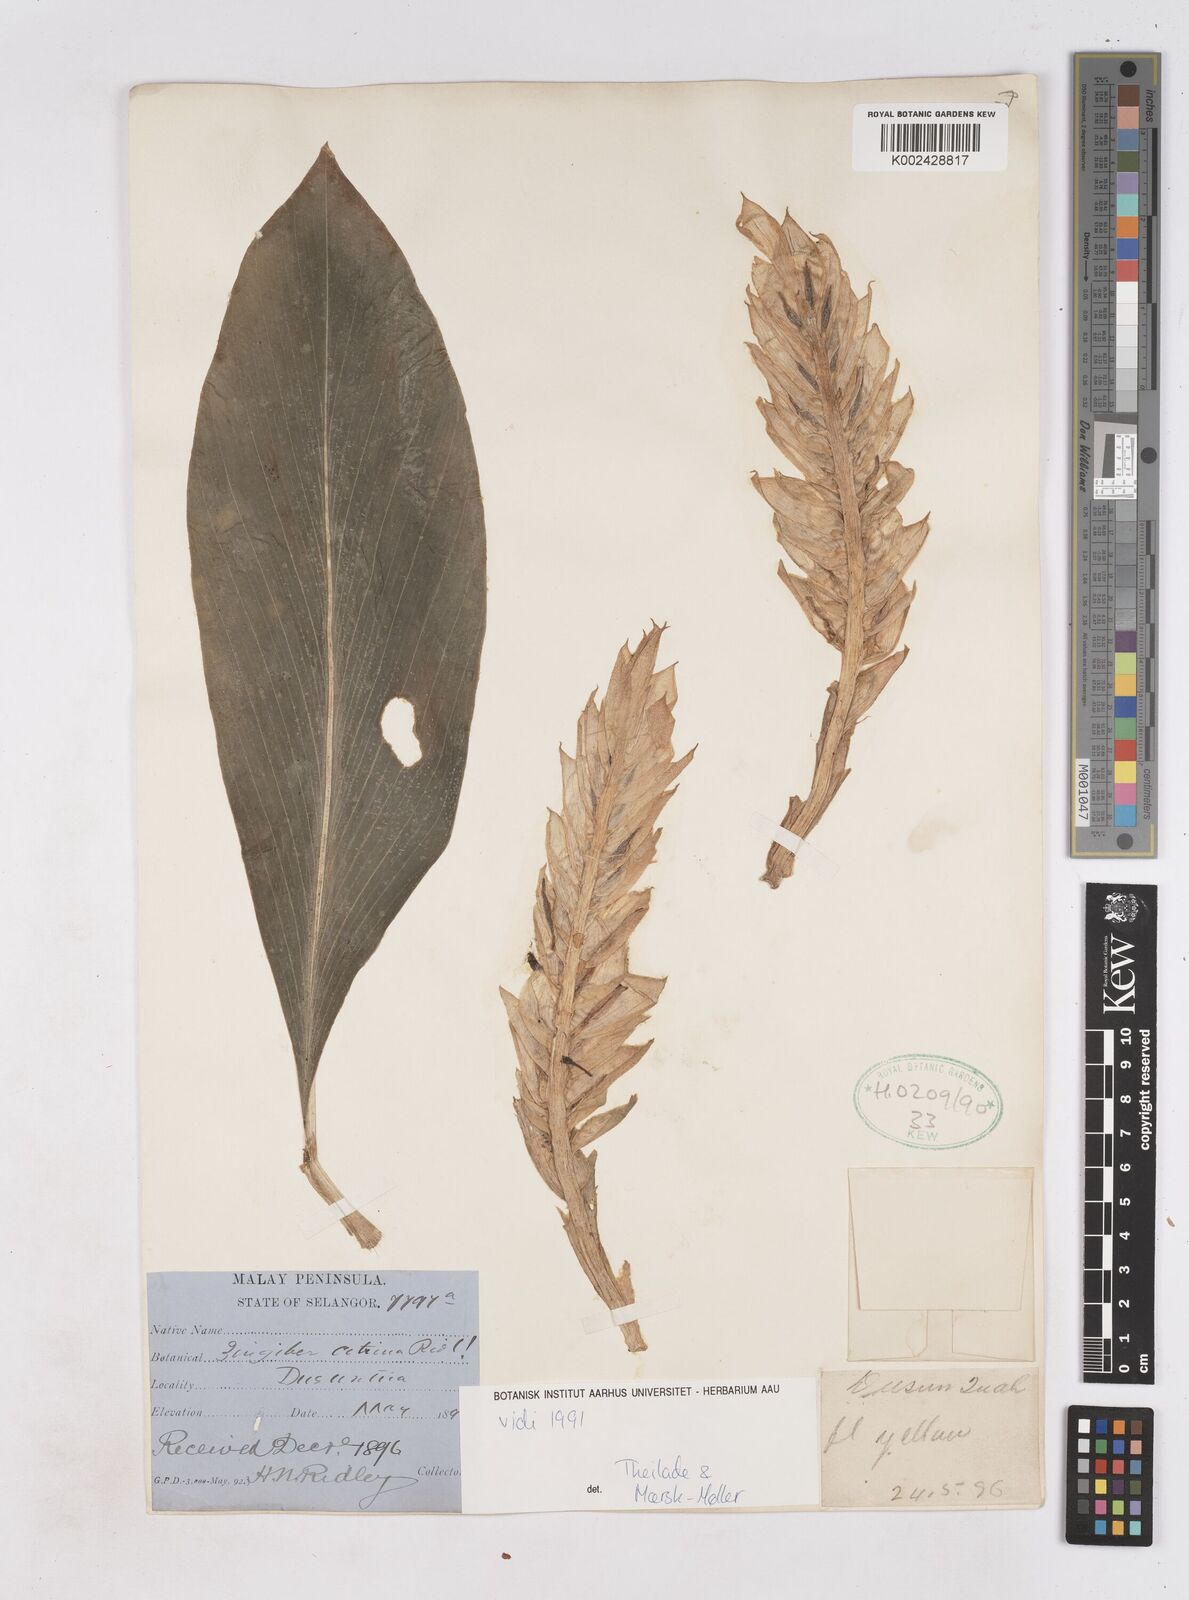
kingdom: Plantae
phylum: Tracheophyta
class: Liliopsida
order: Zingiberales
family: Zingiberaceae
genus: Zingiber
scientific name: Zingiber griffithii
